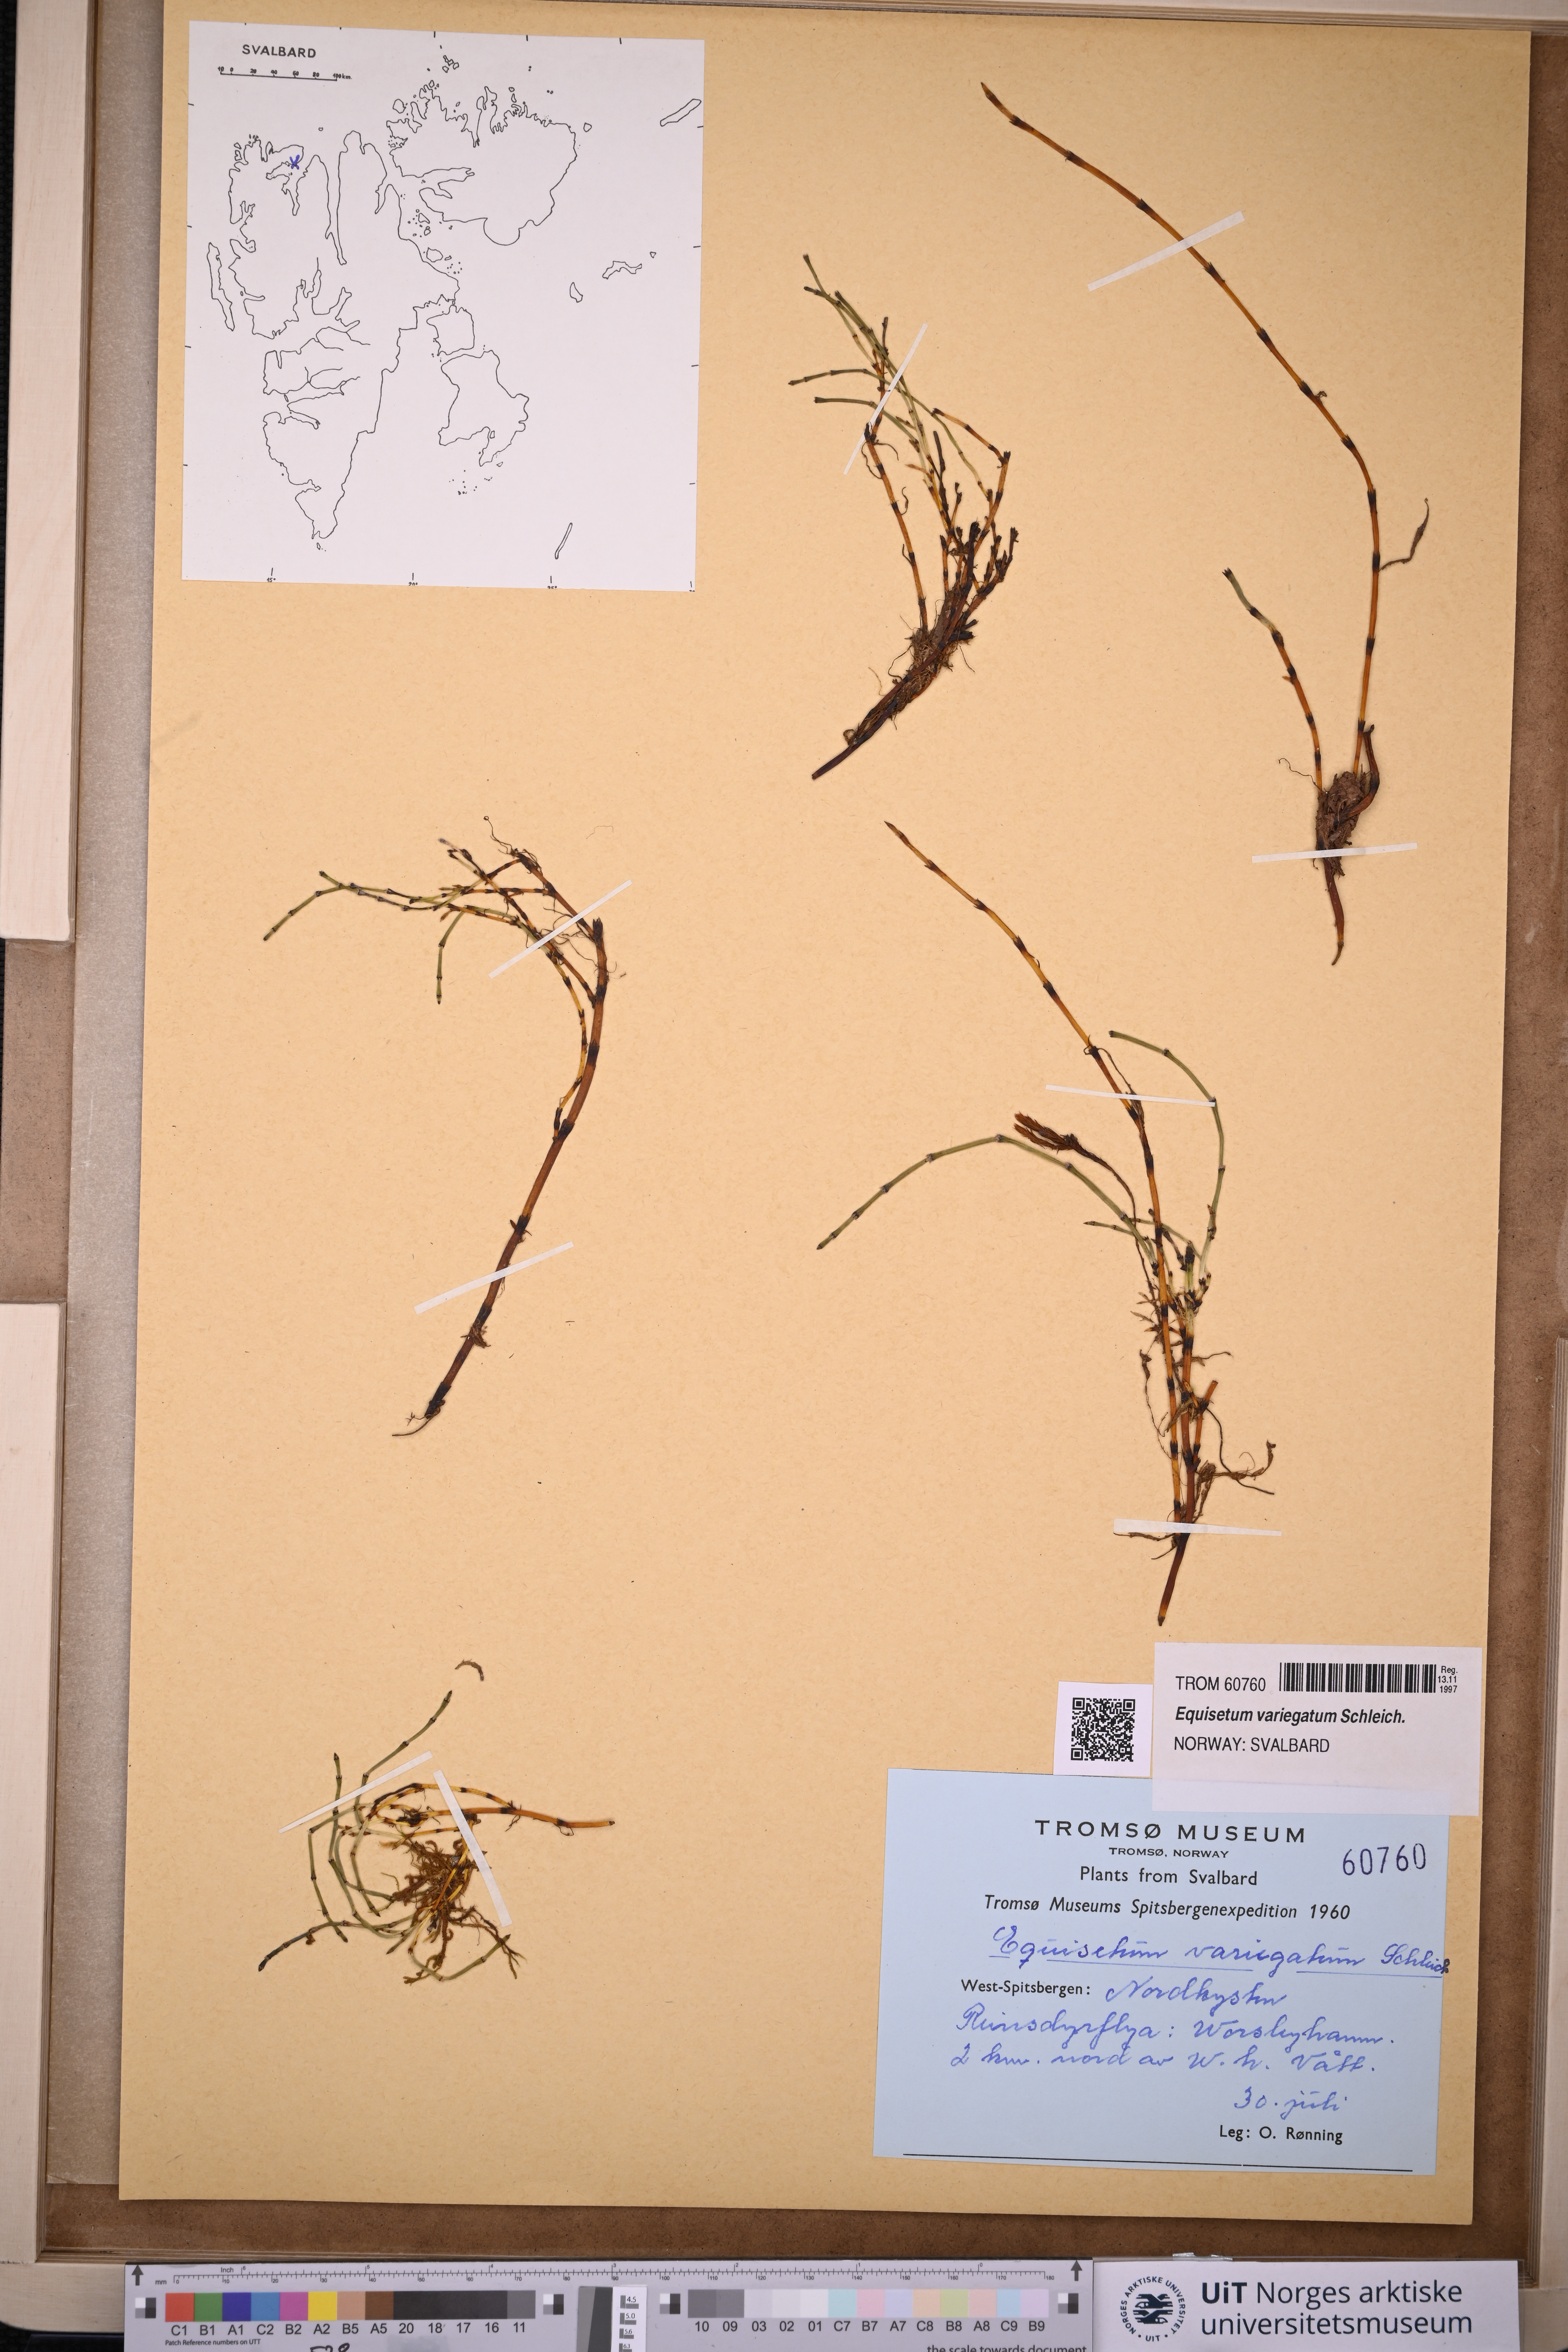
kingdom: Plantae
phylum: Tracheophyta
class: Polypodiopsida
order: Equisetales
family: Equisetaceae
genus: Equisetum
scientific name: Equisetum variegatum
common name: Variegated horsetail
